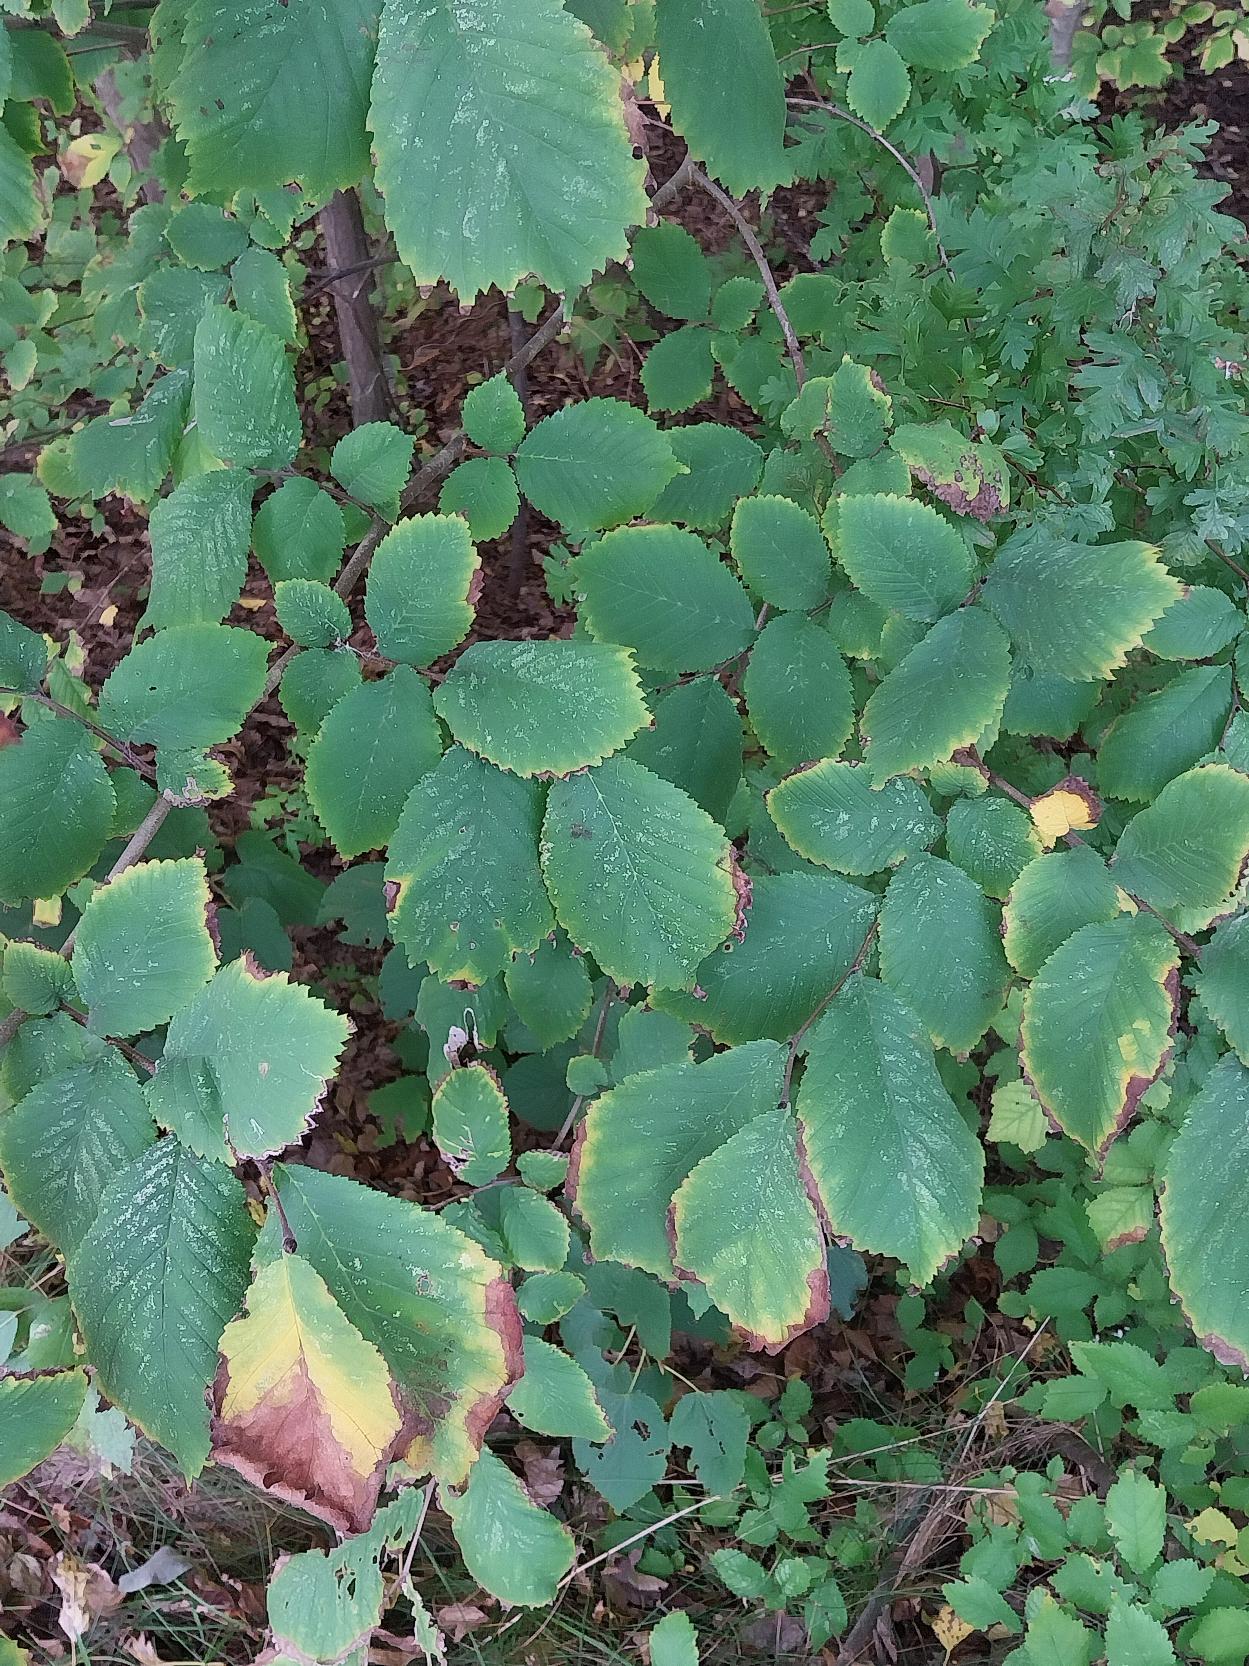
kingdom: Plantae
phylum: Tracheophyta
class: Magnoliopsida
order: Rosales
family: Ulmaceae
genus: Ulmus
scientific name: Ulmus glabra
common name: Skov-elm/storbladet elm
